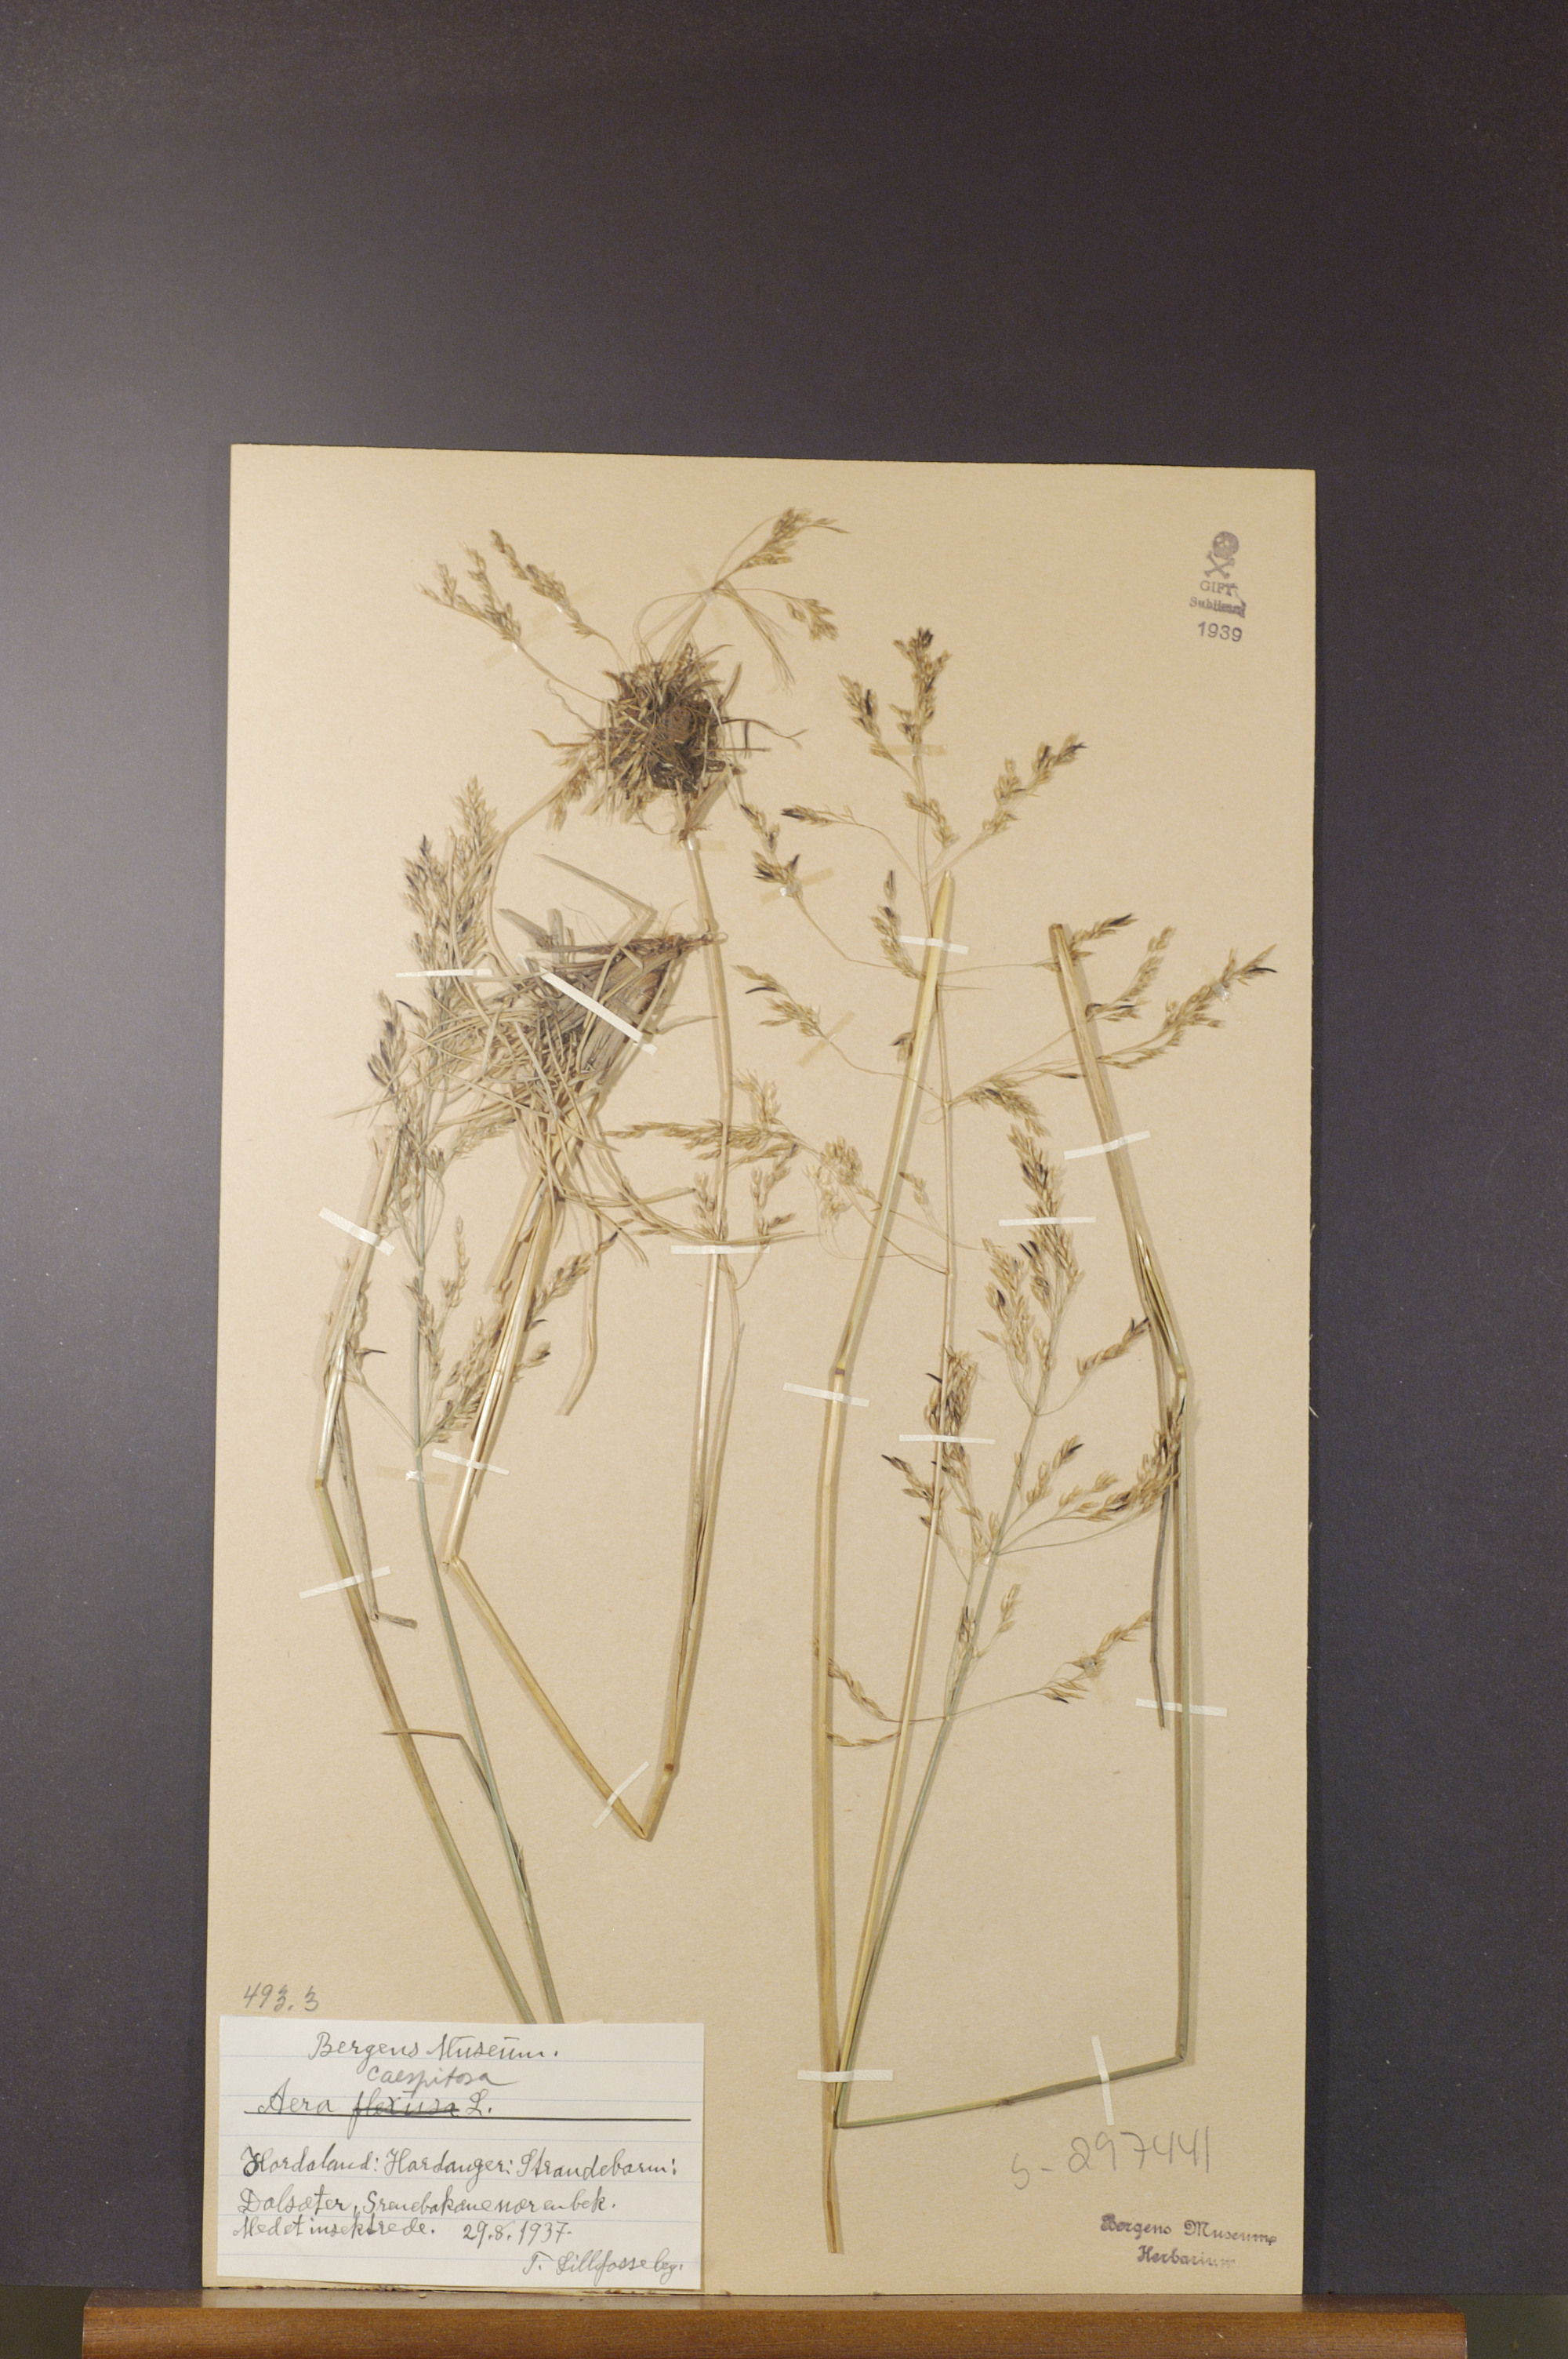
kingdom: Plantae
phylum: Tracheophyta
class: Liliopsida
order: Poales
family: Poaceae
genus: Deschampsia
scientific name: Deschampsia cespitosa
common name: Tufted hair-grass
